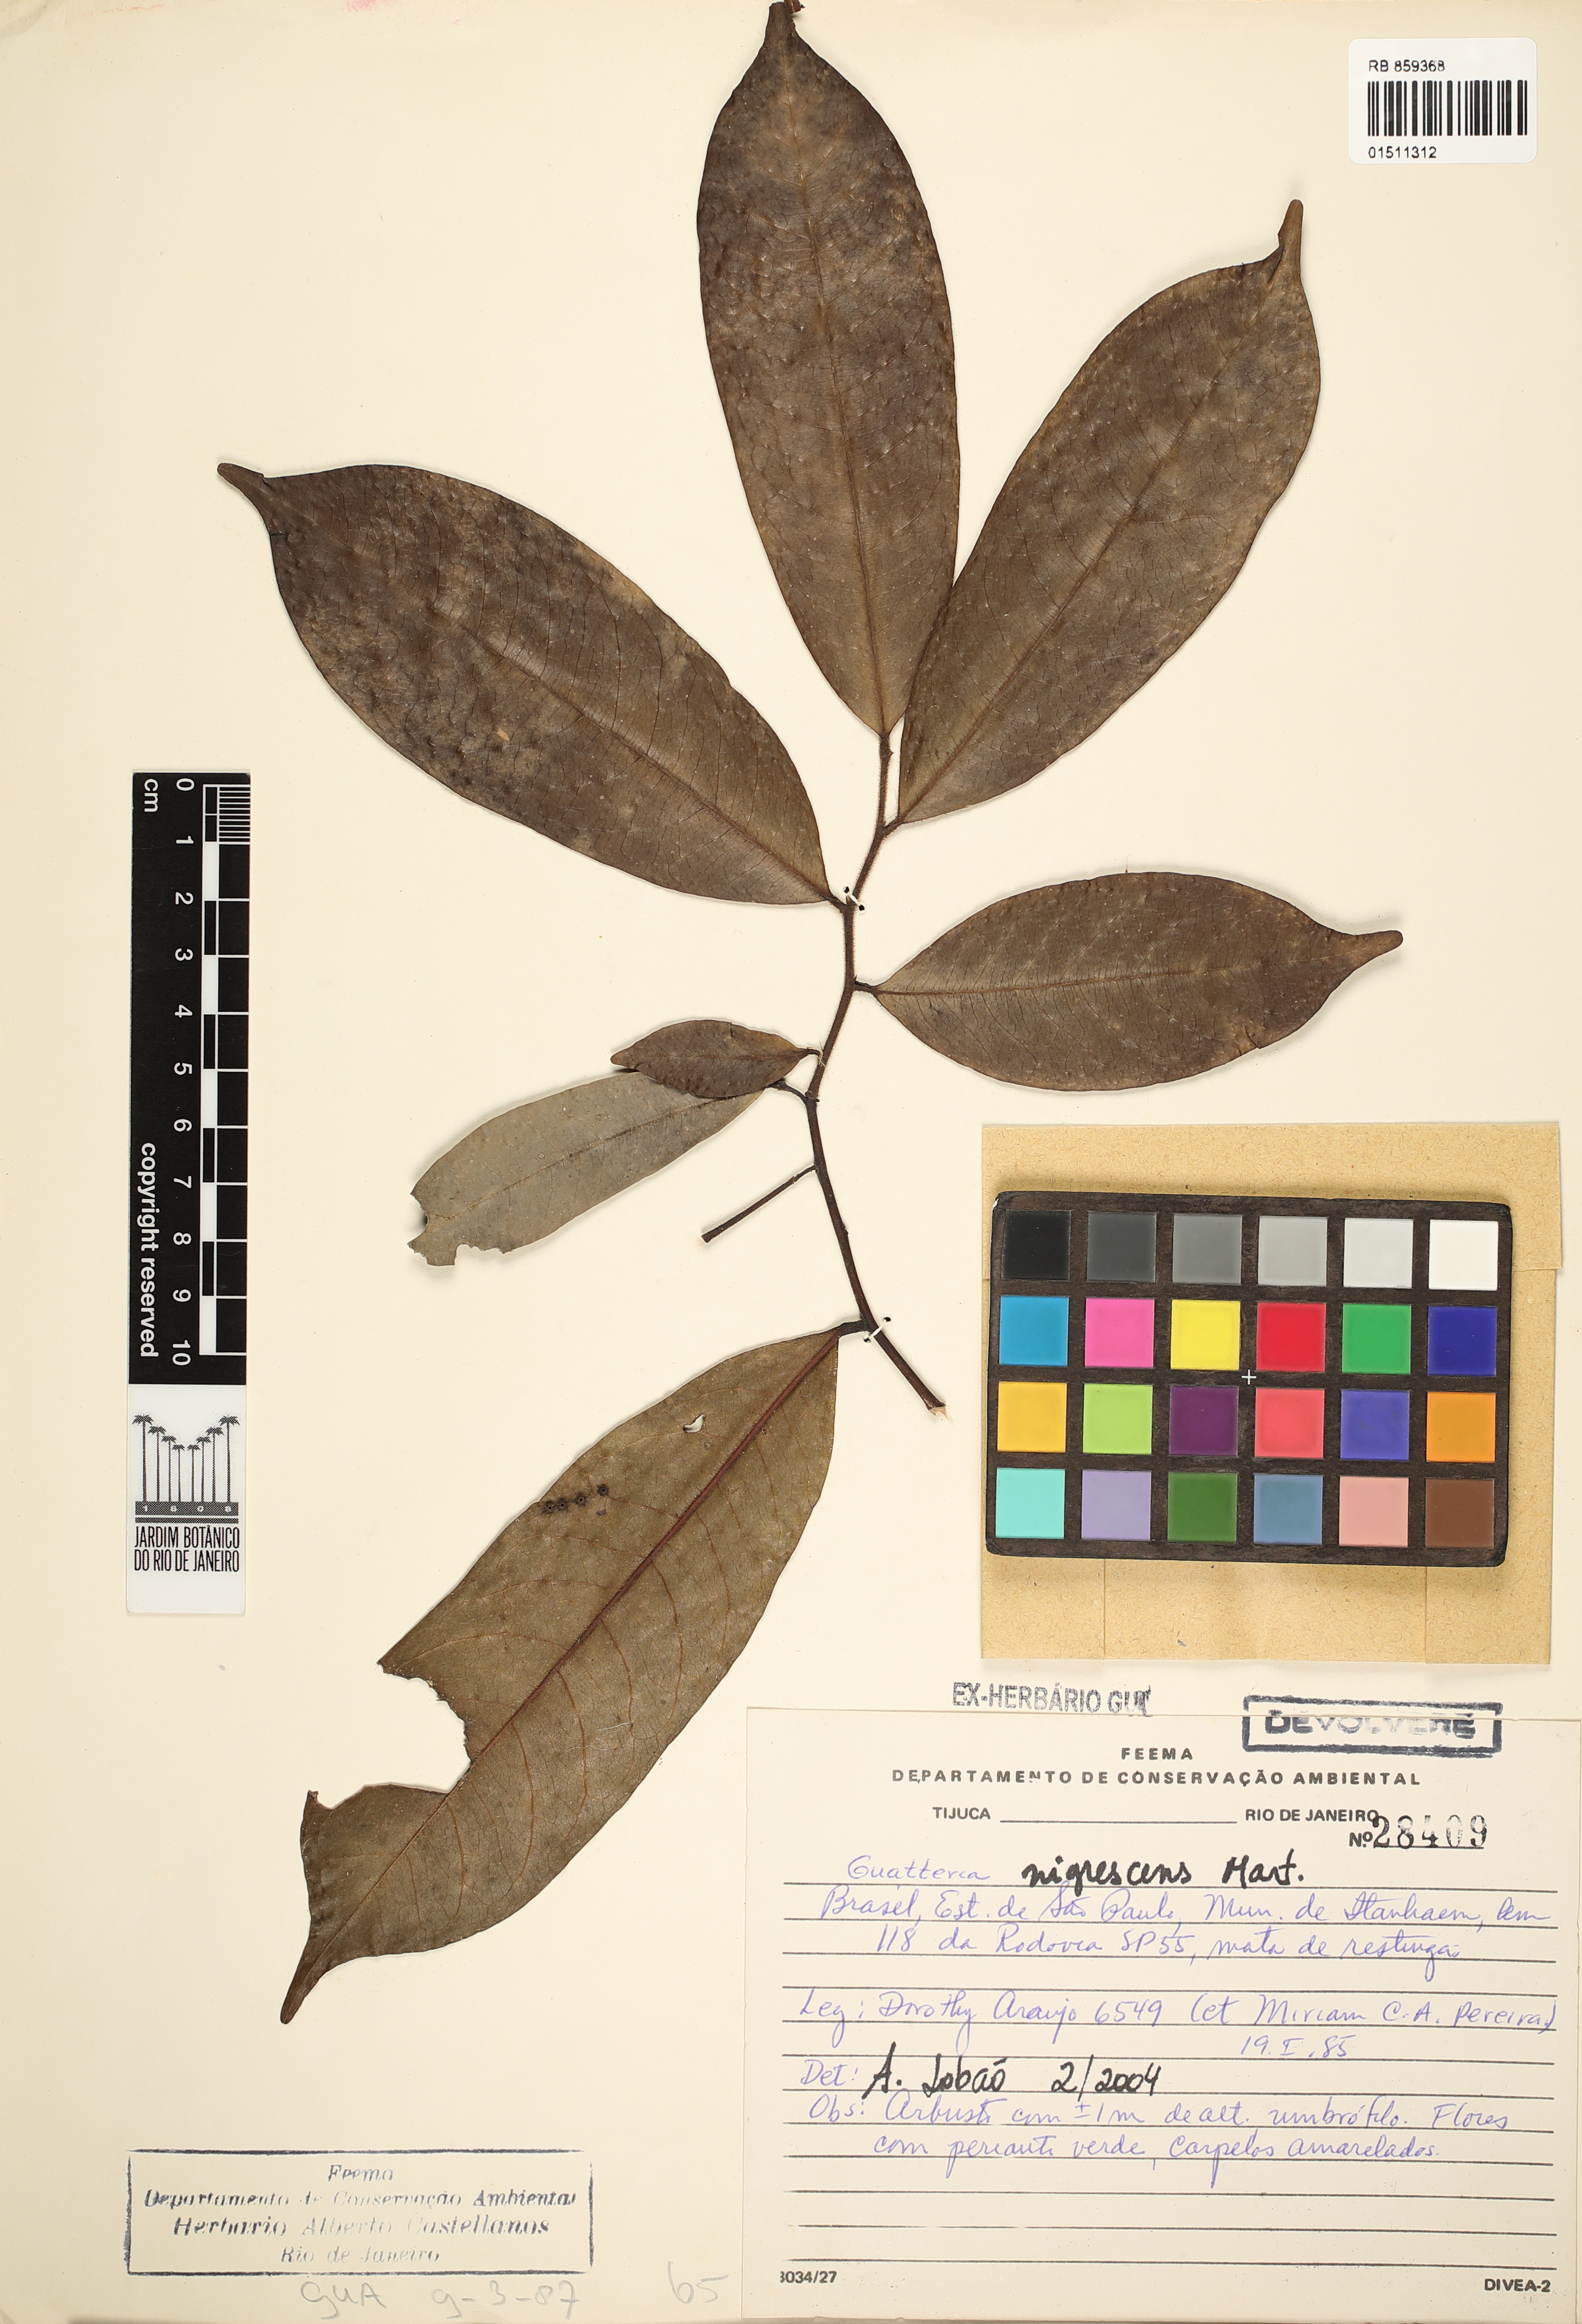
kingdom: Plantae
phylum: Tracheophyta
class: Magnoliopsida
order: Magnoliales
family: Annonaceae
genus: Guatteria
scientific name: Guatteria australis
